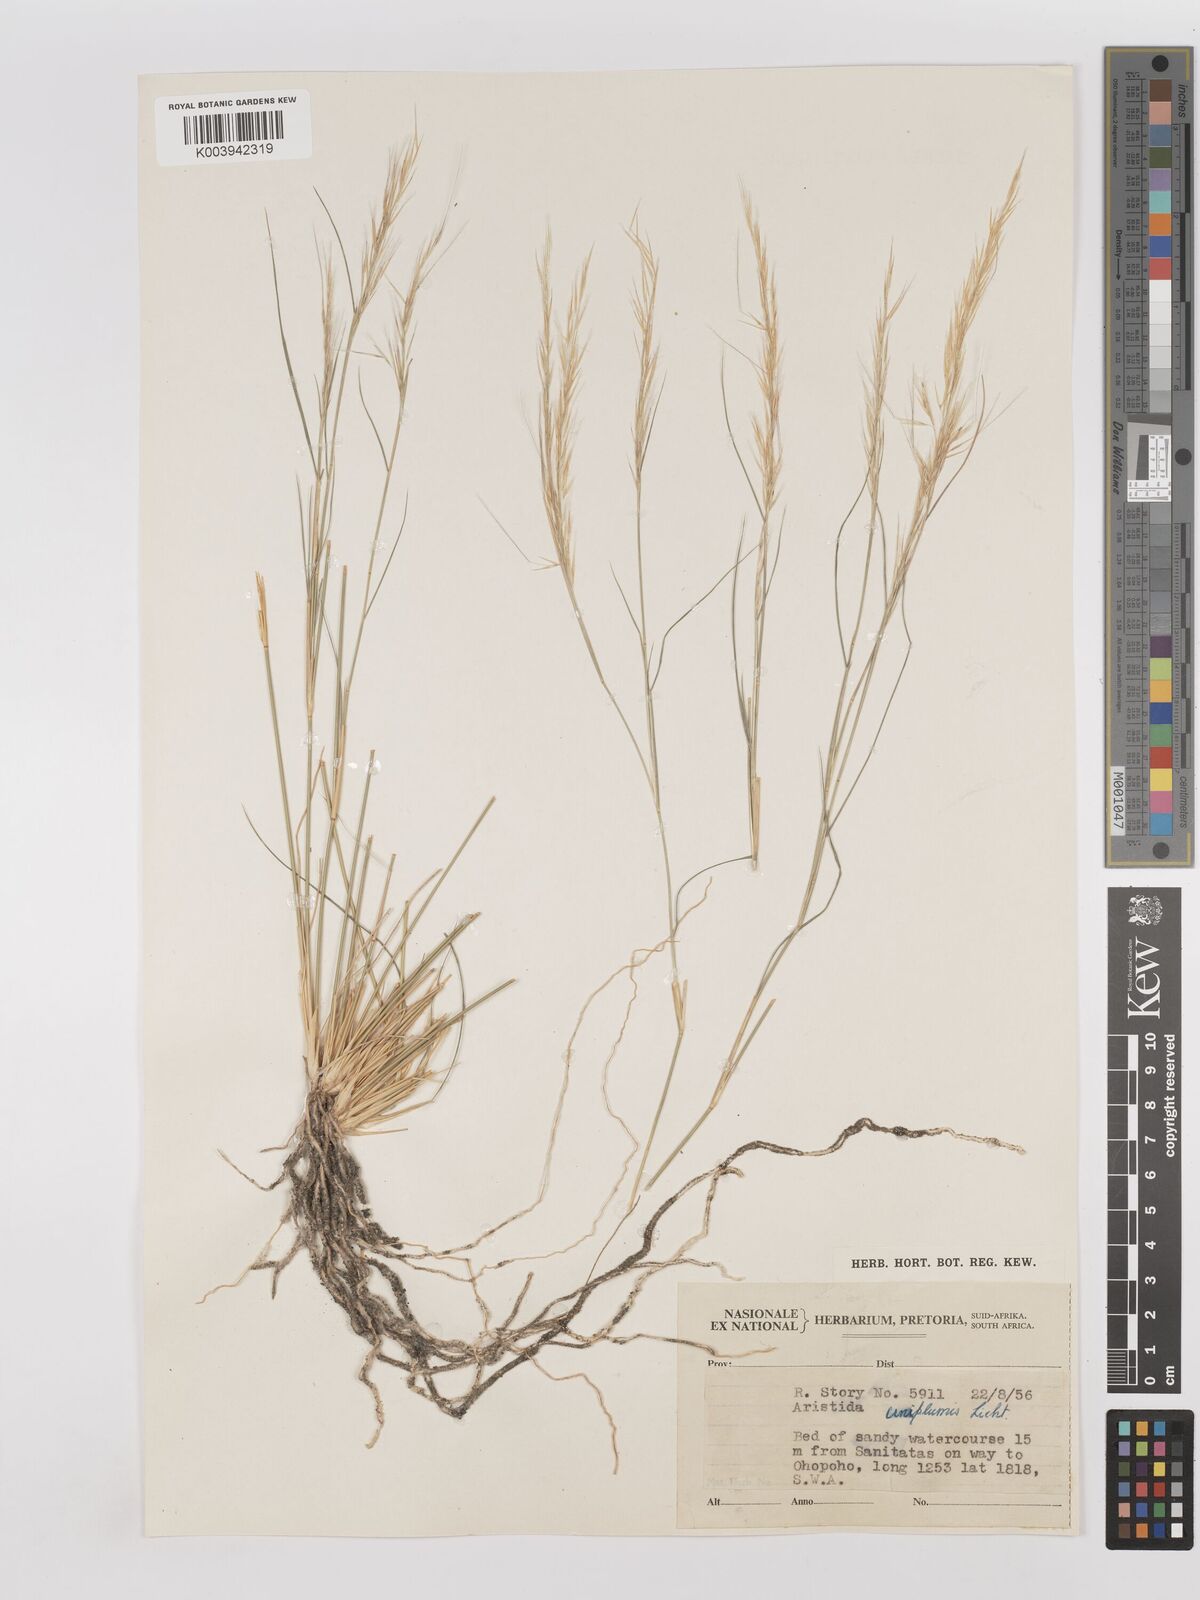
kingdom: Plantae
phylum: Tracheophyta
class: Liliopsida
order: Poales
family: Poaceae
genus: Stipagrostis
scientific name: Stipagrostis uniplumis
